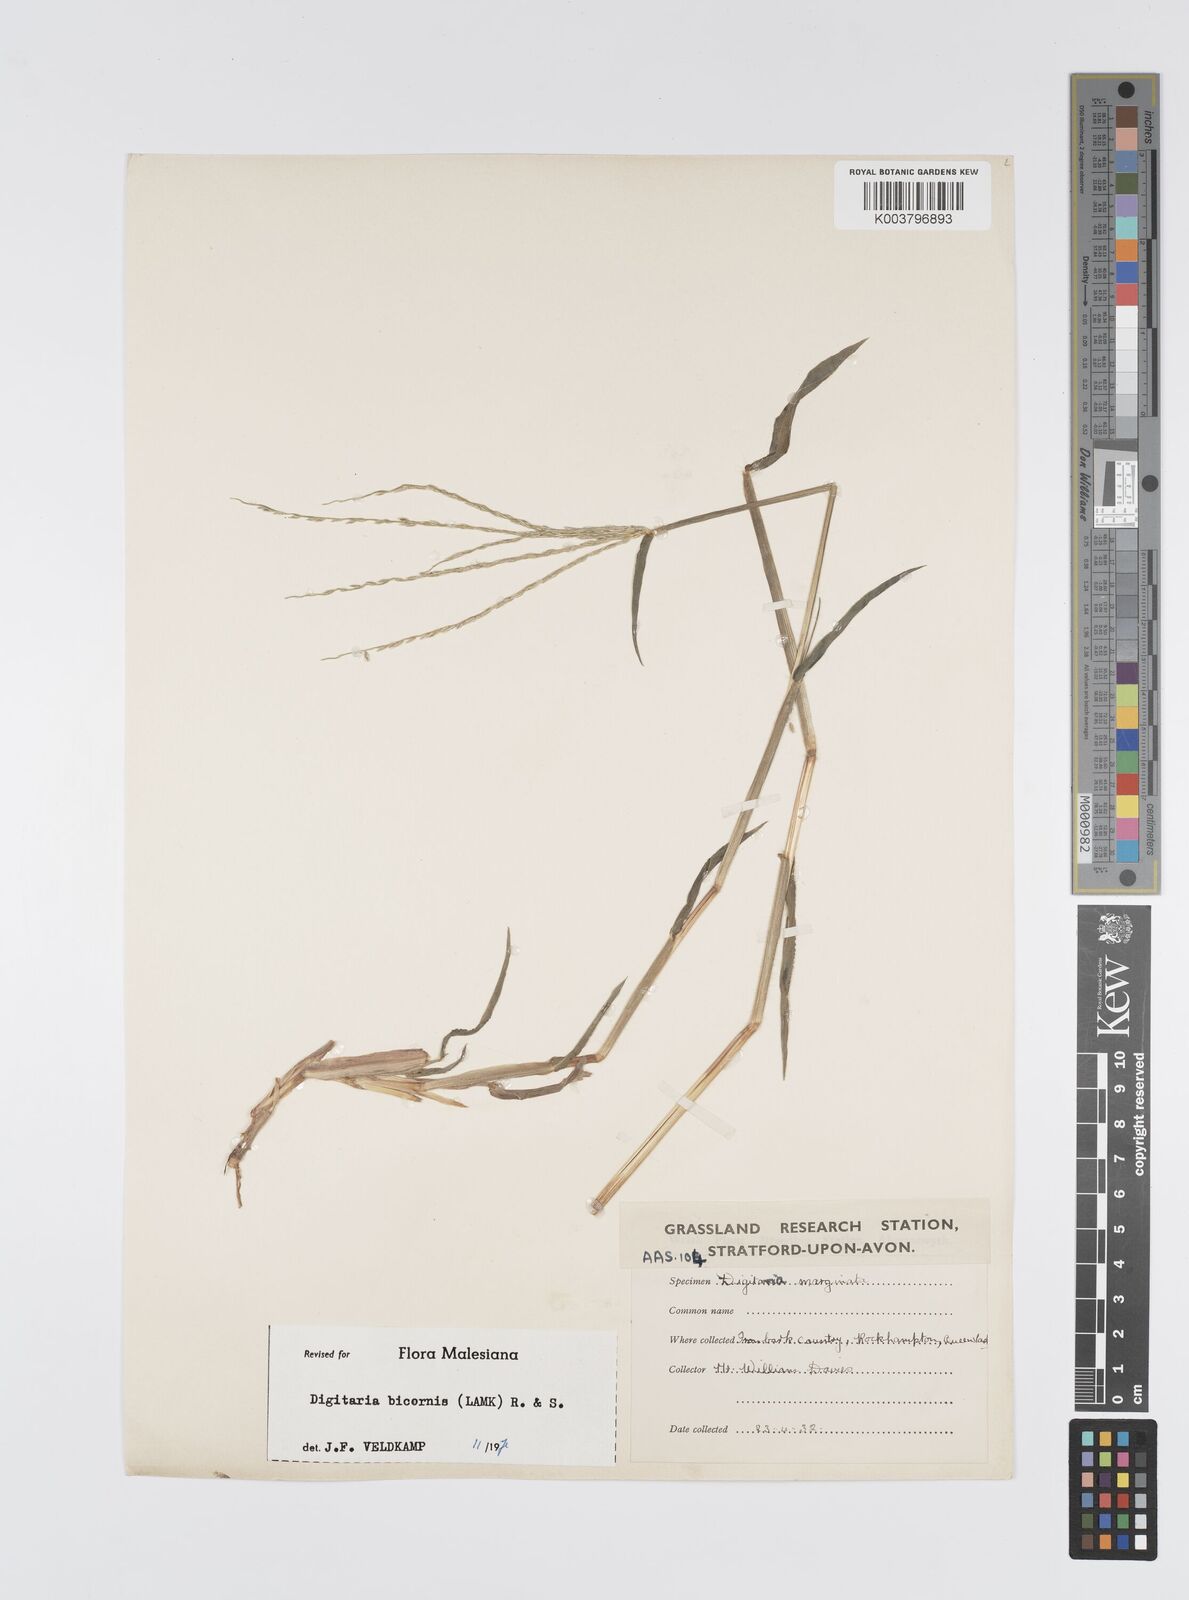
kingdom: Plantae
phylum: Tracheophyta
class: Liliopsida
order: Poales
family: Poaceae
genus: Digitaria
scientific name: Digitaria bicornis
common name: Asian crabgrass
